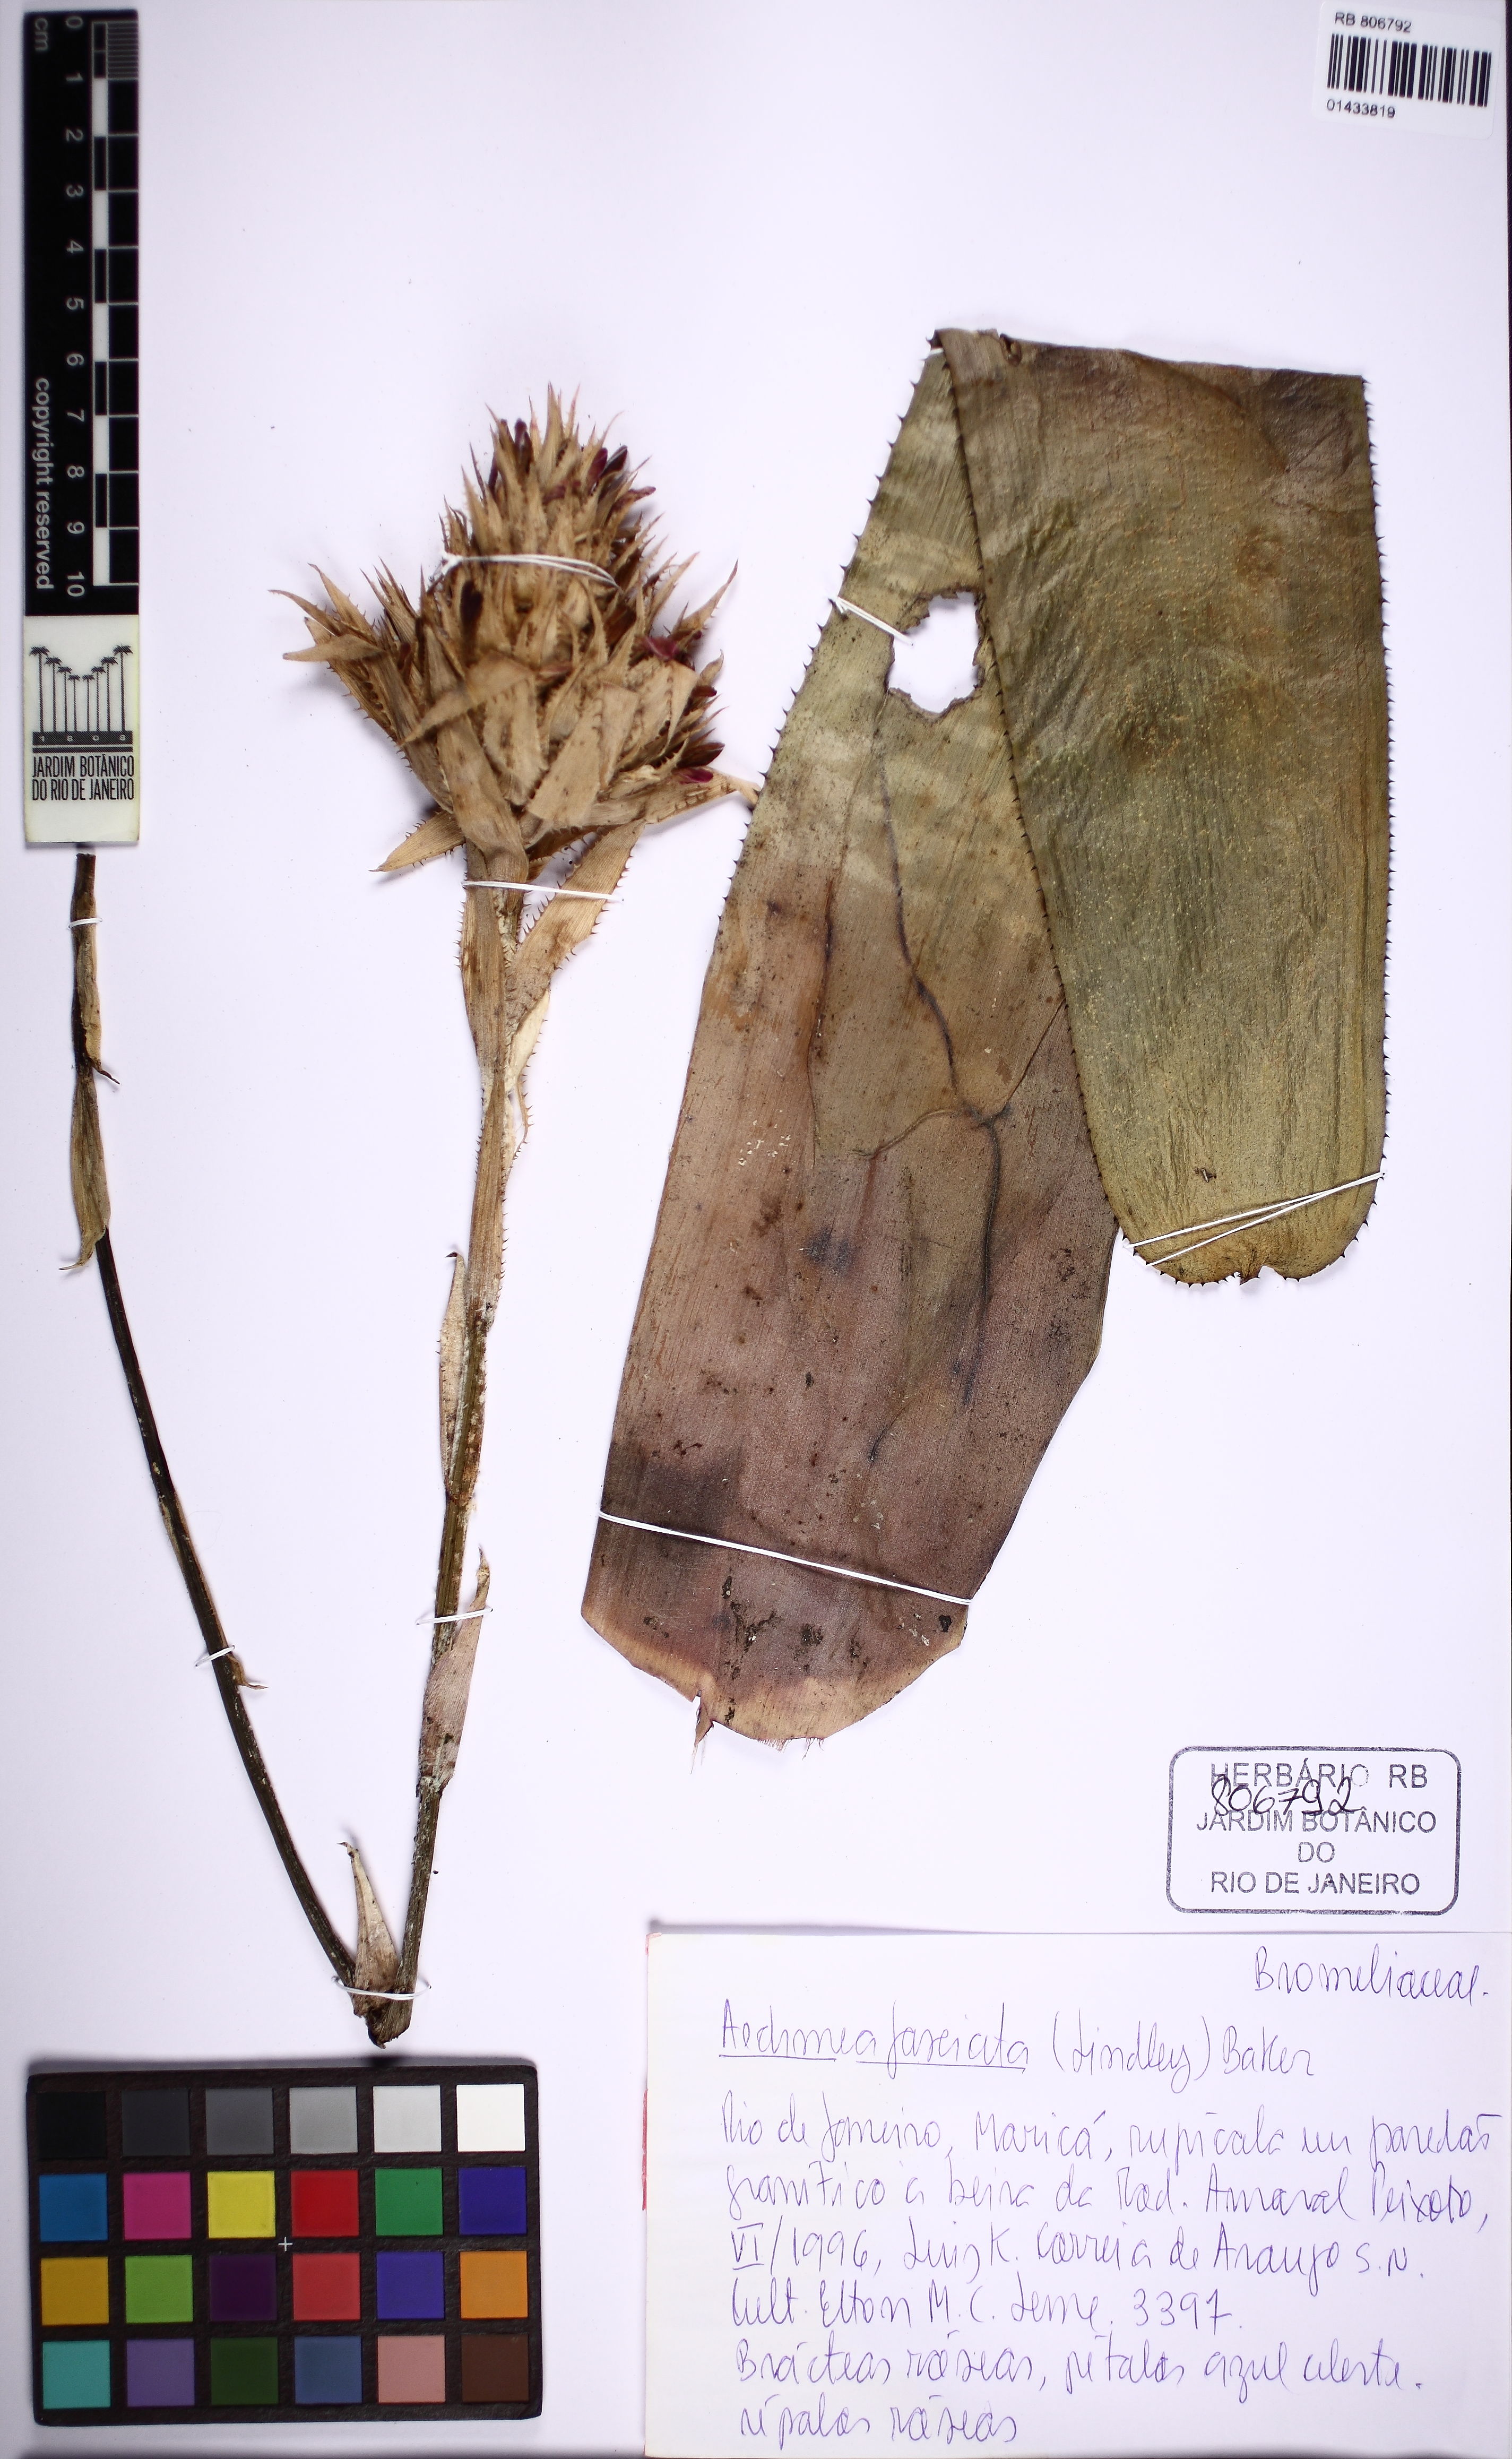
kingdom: Plantae
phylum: Tracheophyta
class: Liliopsida
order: Poales
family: Bromeliaceae
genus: Aechmea
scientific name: Aechmea fasciata
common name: Urnplant
